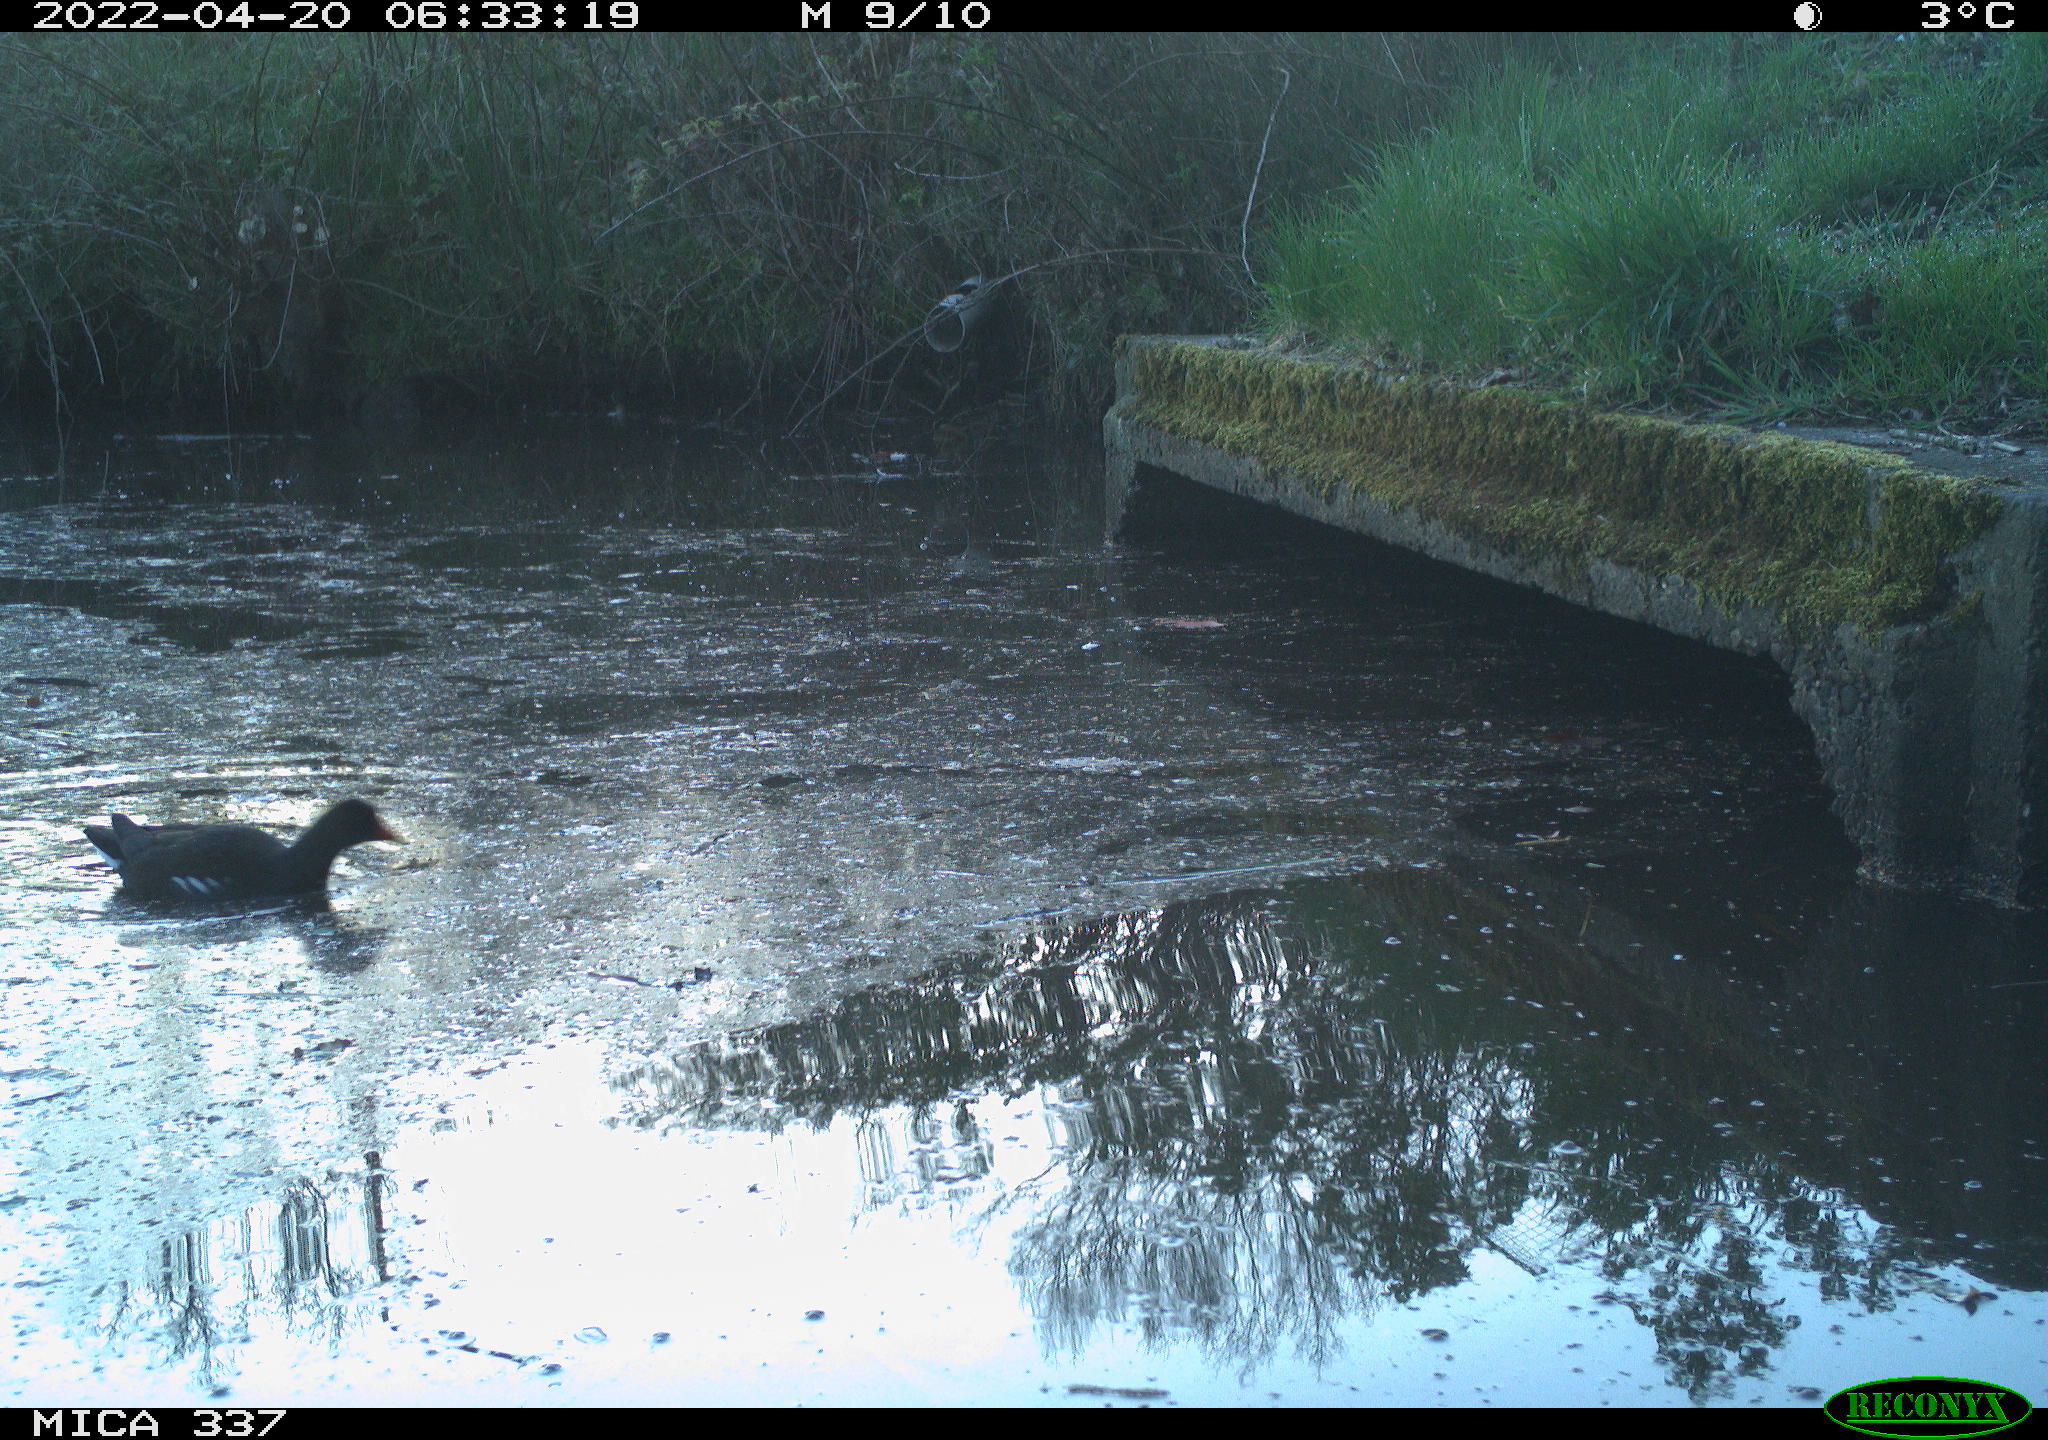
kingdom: Animalia
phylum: Chordata
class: Aves
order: Gruiformes
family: Rallidae
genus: Gallinula
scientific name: Gallinula chloropus
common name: Common moorhen
